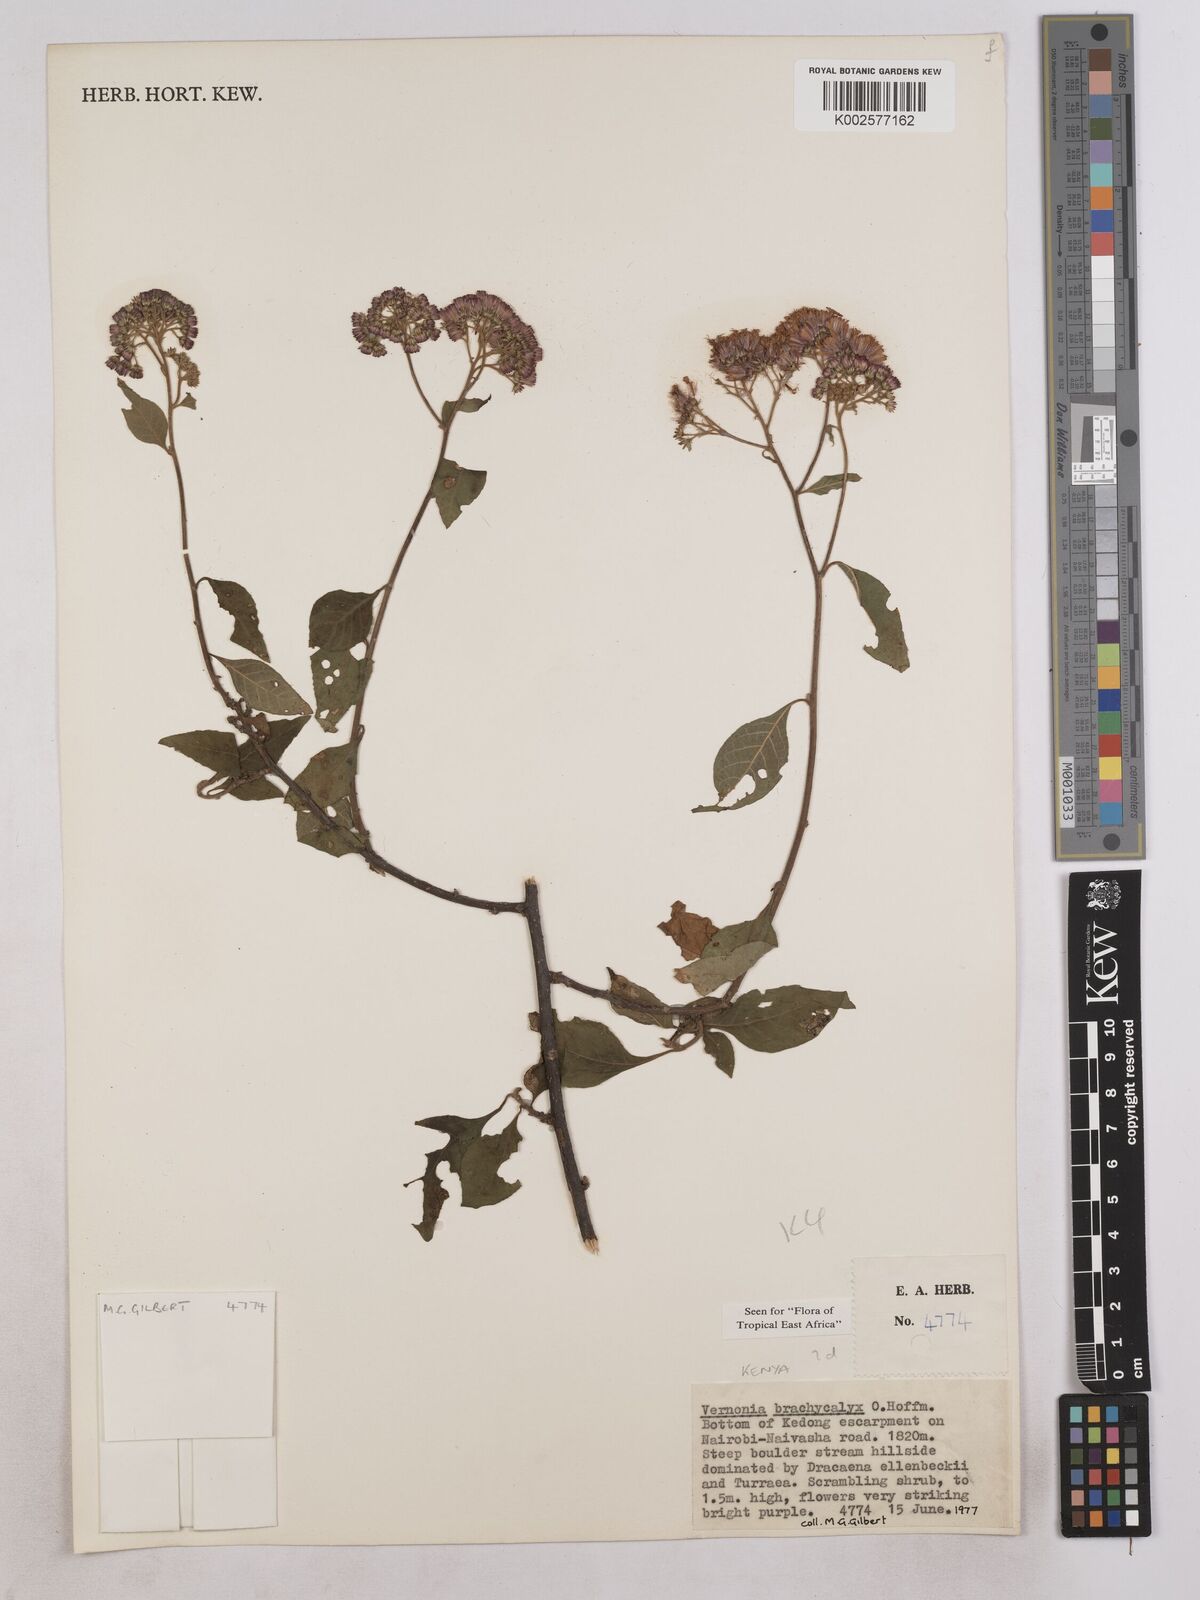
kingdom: Plantae
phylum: Tracheophyta
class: Magnoliopsida
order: Asterales
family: Asteraceae
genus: Hoffmannanthus
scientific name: Hoffmannanthus abbotianus
